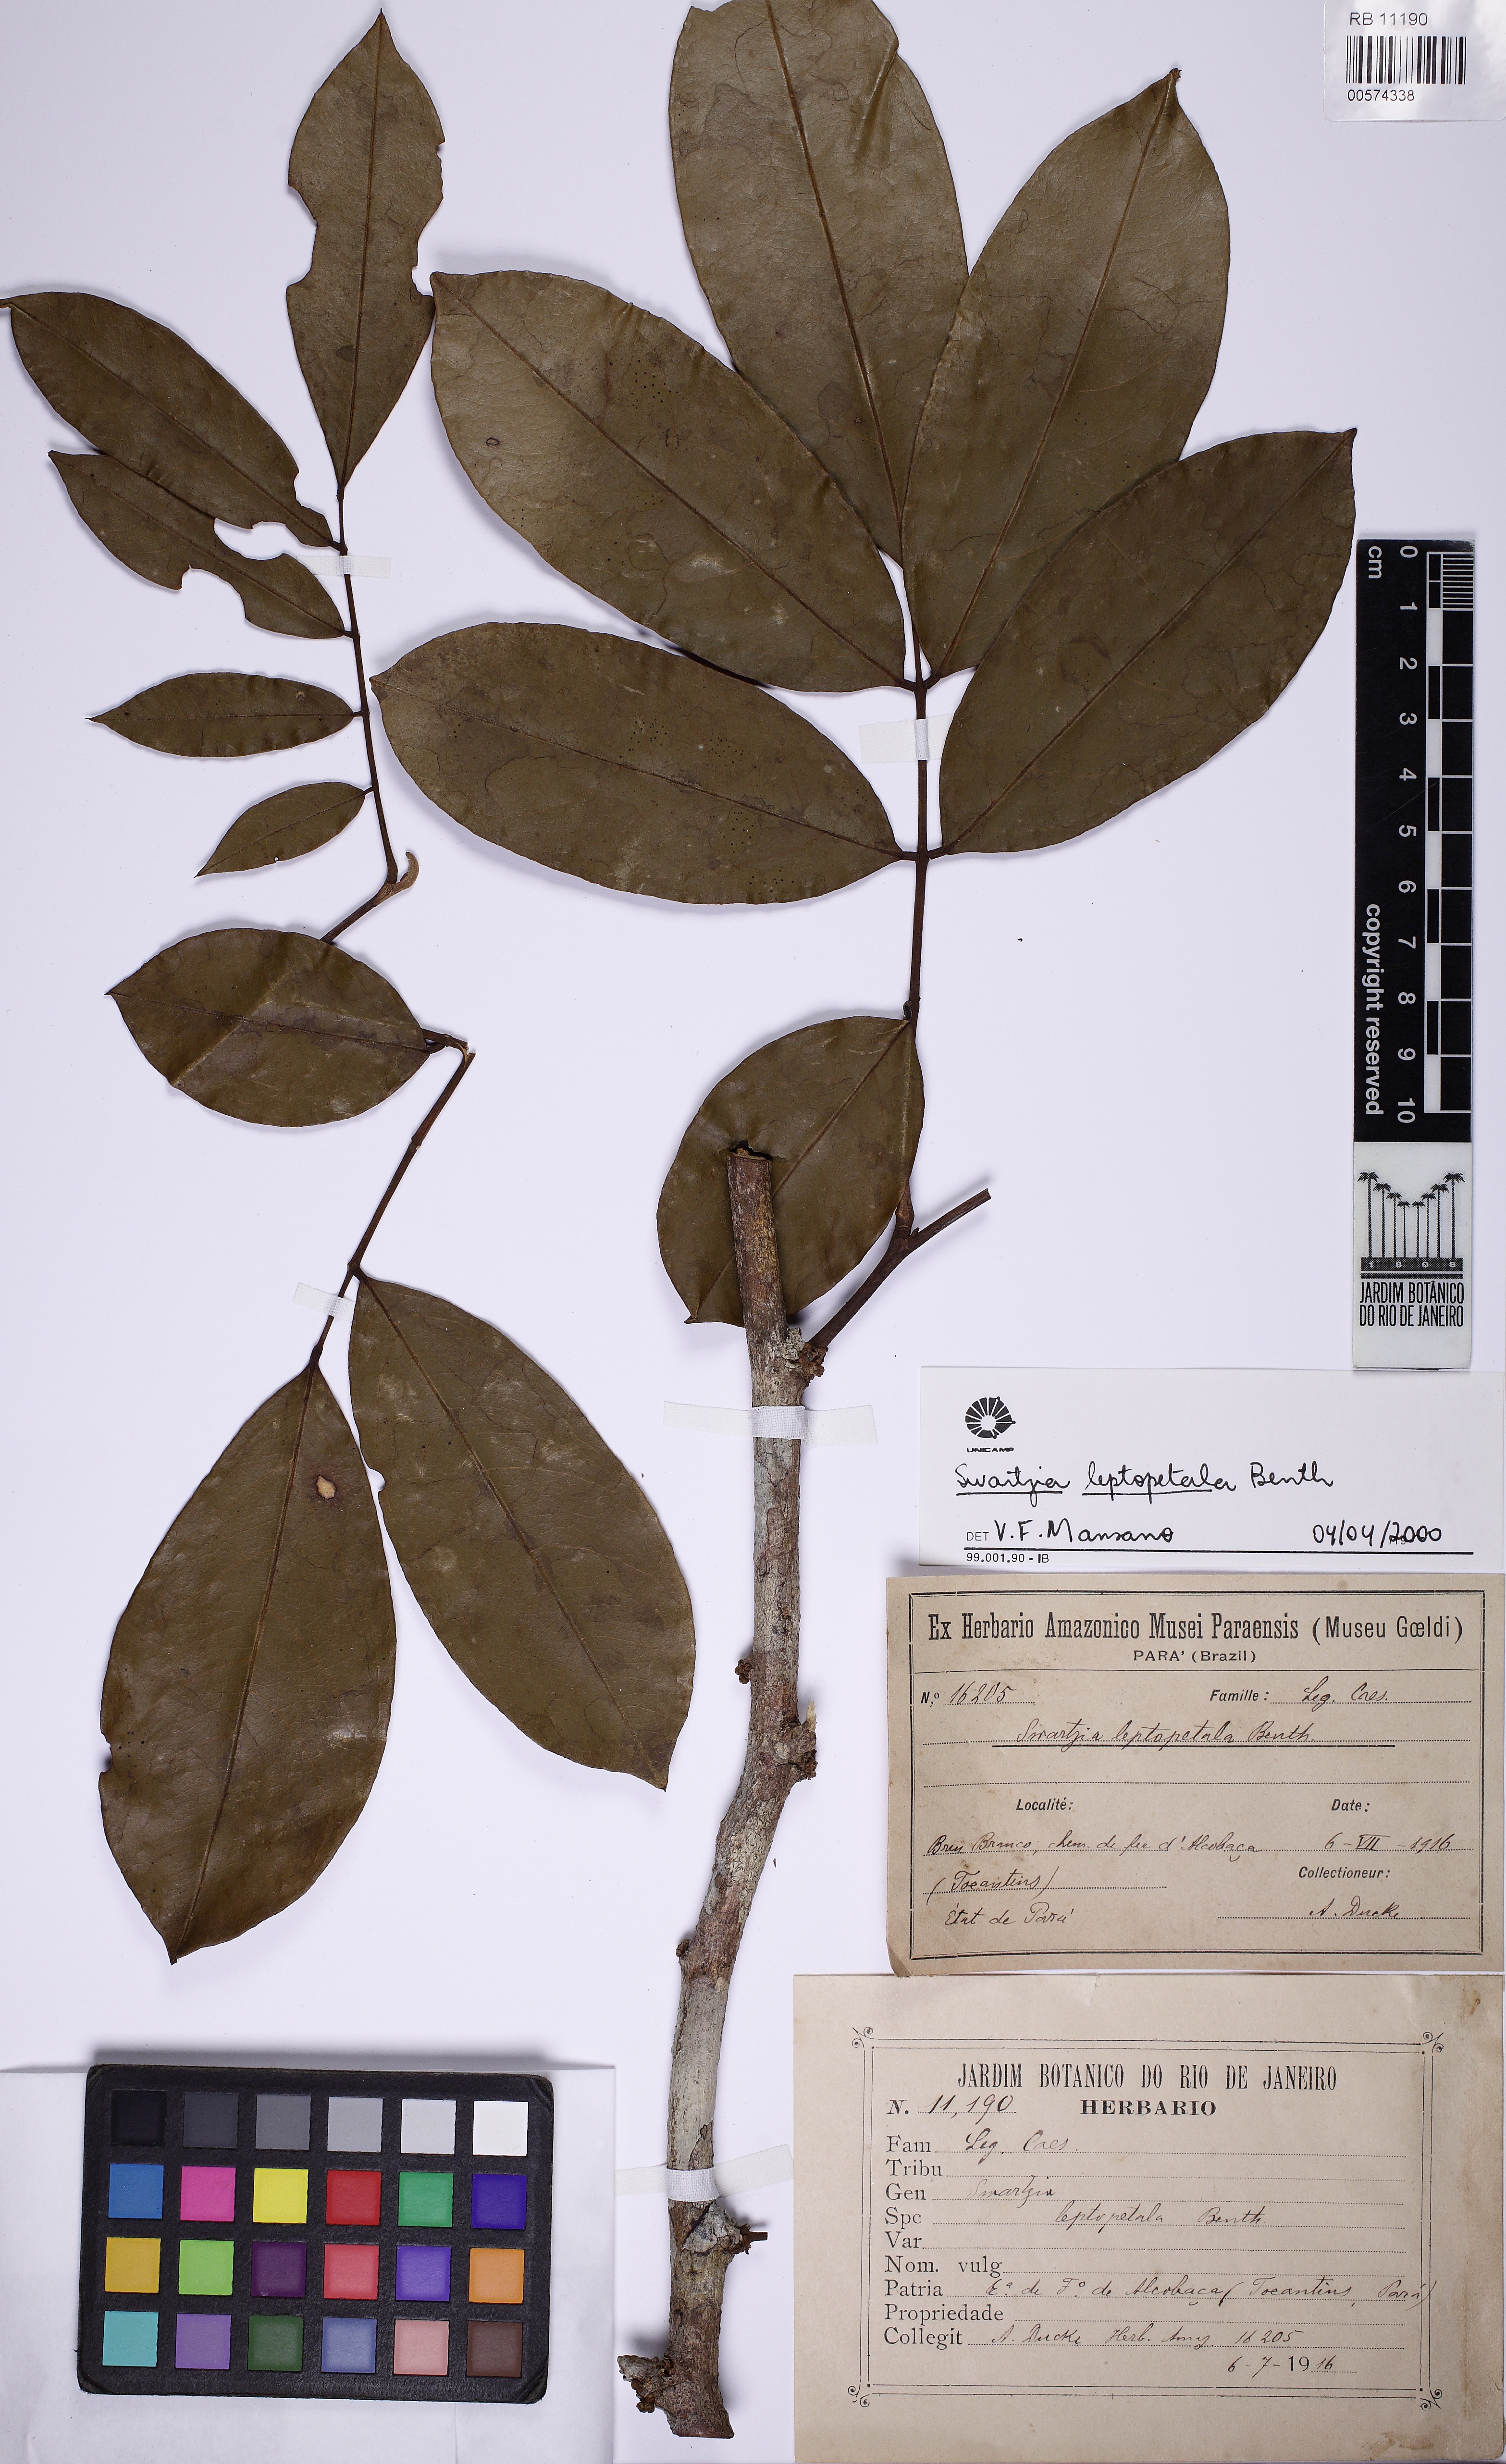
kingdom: Plantae
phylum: Tracheophyta
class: Magnoliopsida
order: Fabales
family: Fabaceae
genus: Swartzia
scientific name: Swartzia leptopetala
